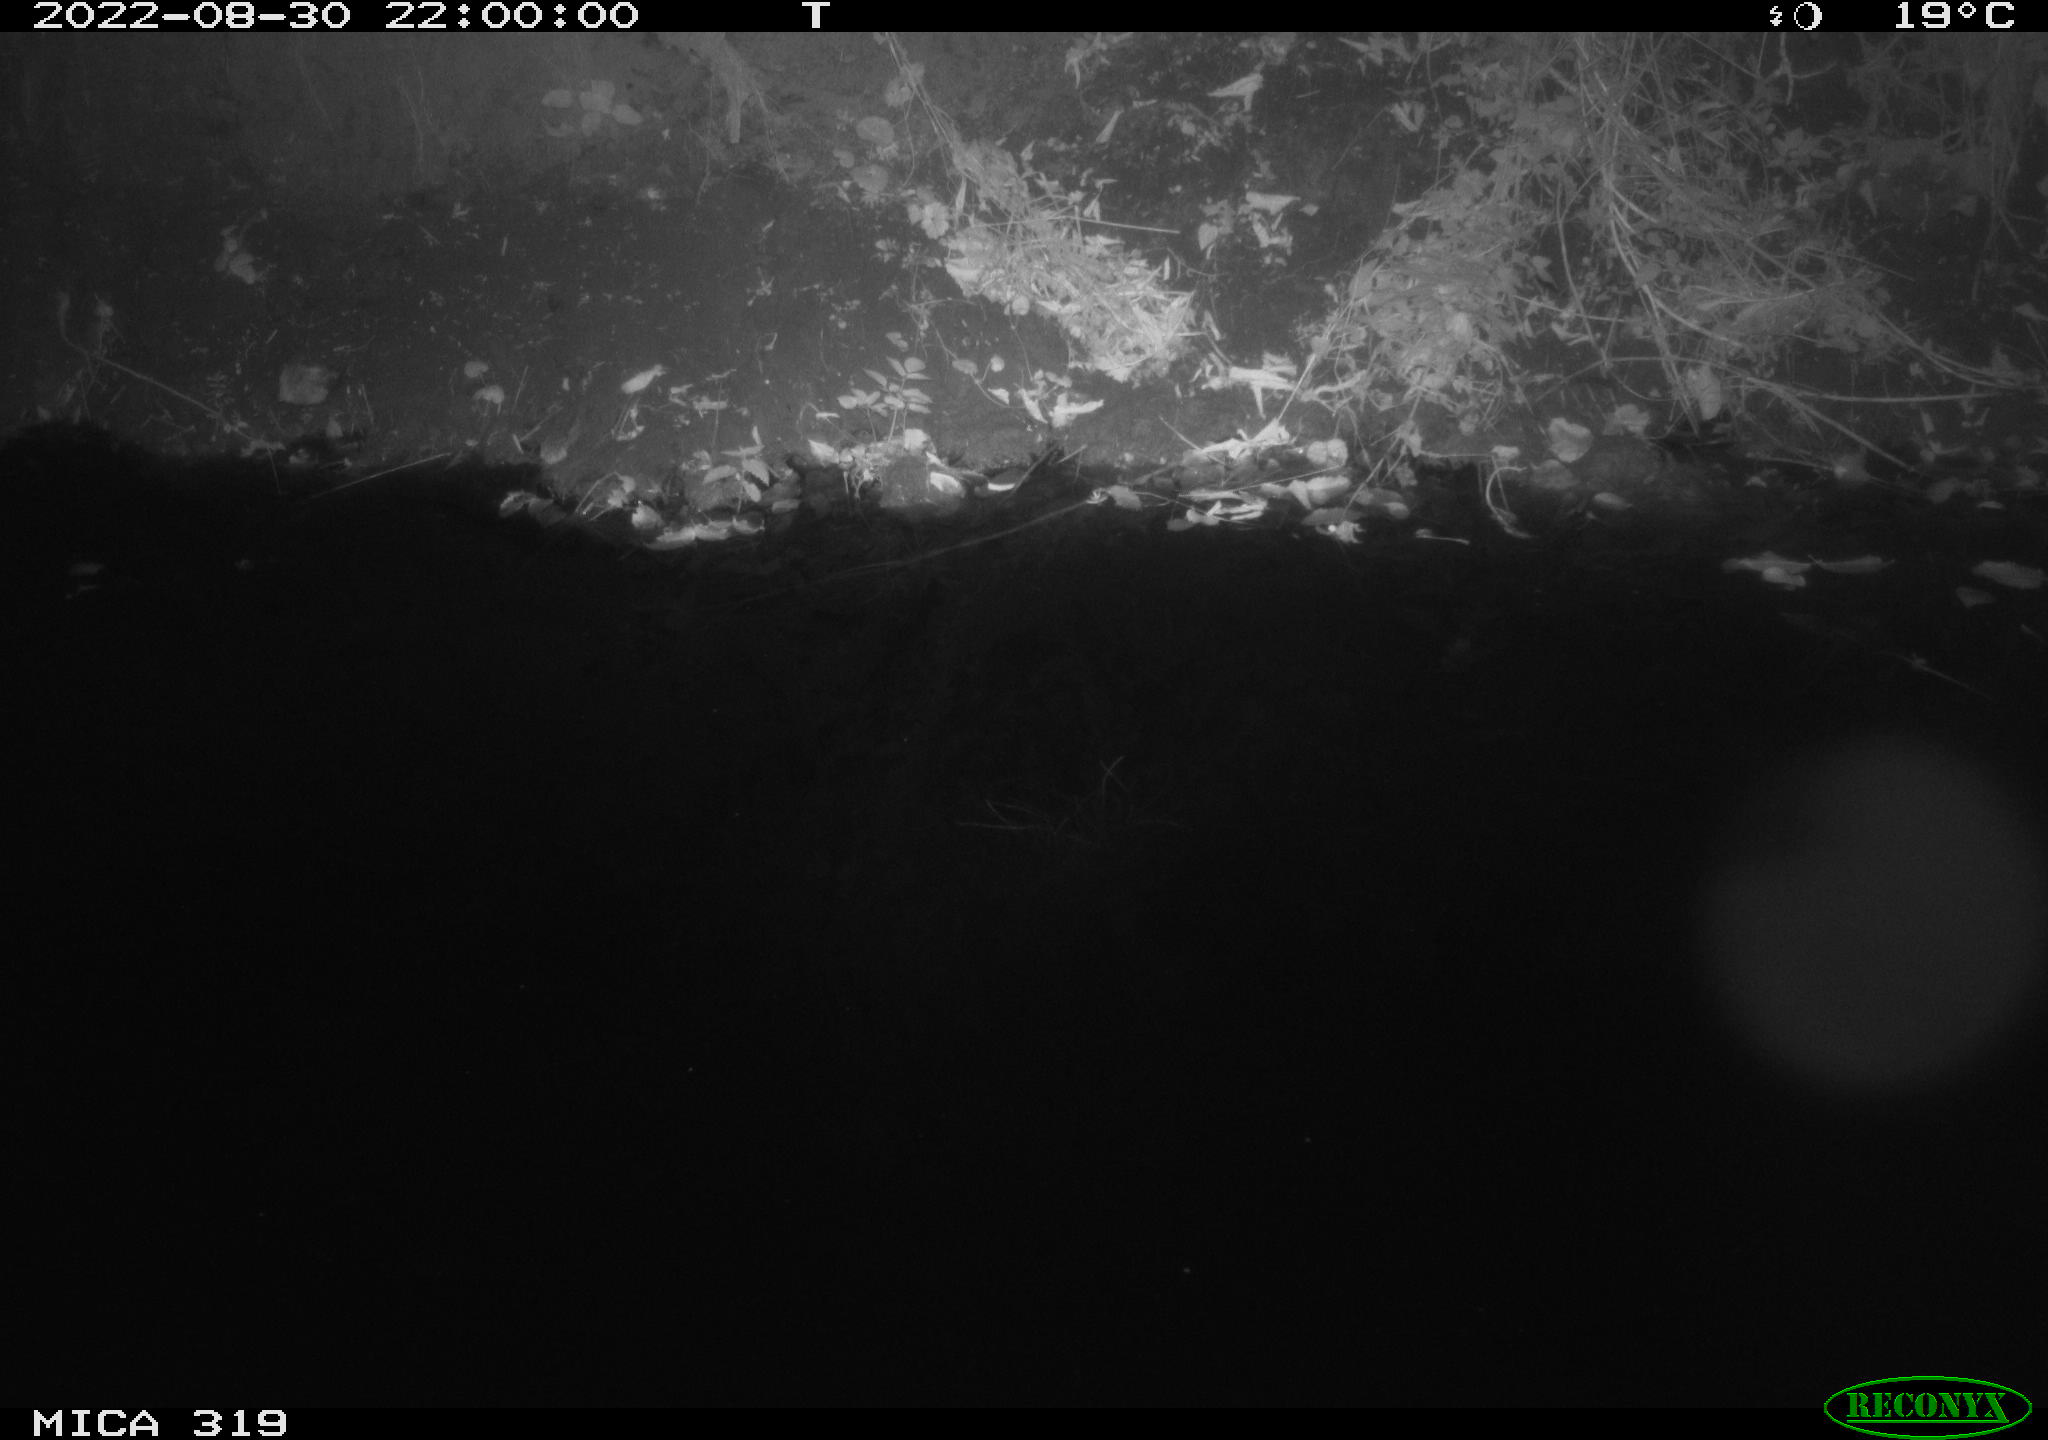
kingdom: Animalia
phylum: Chordata
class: Mammalia
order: Rodentia
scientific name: Rodentia
